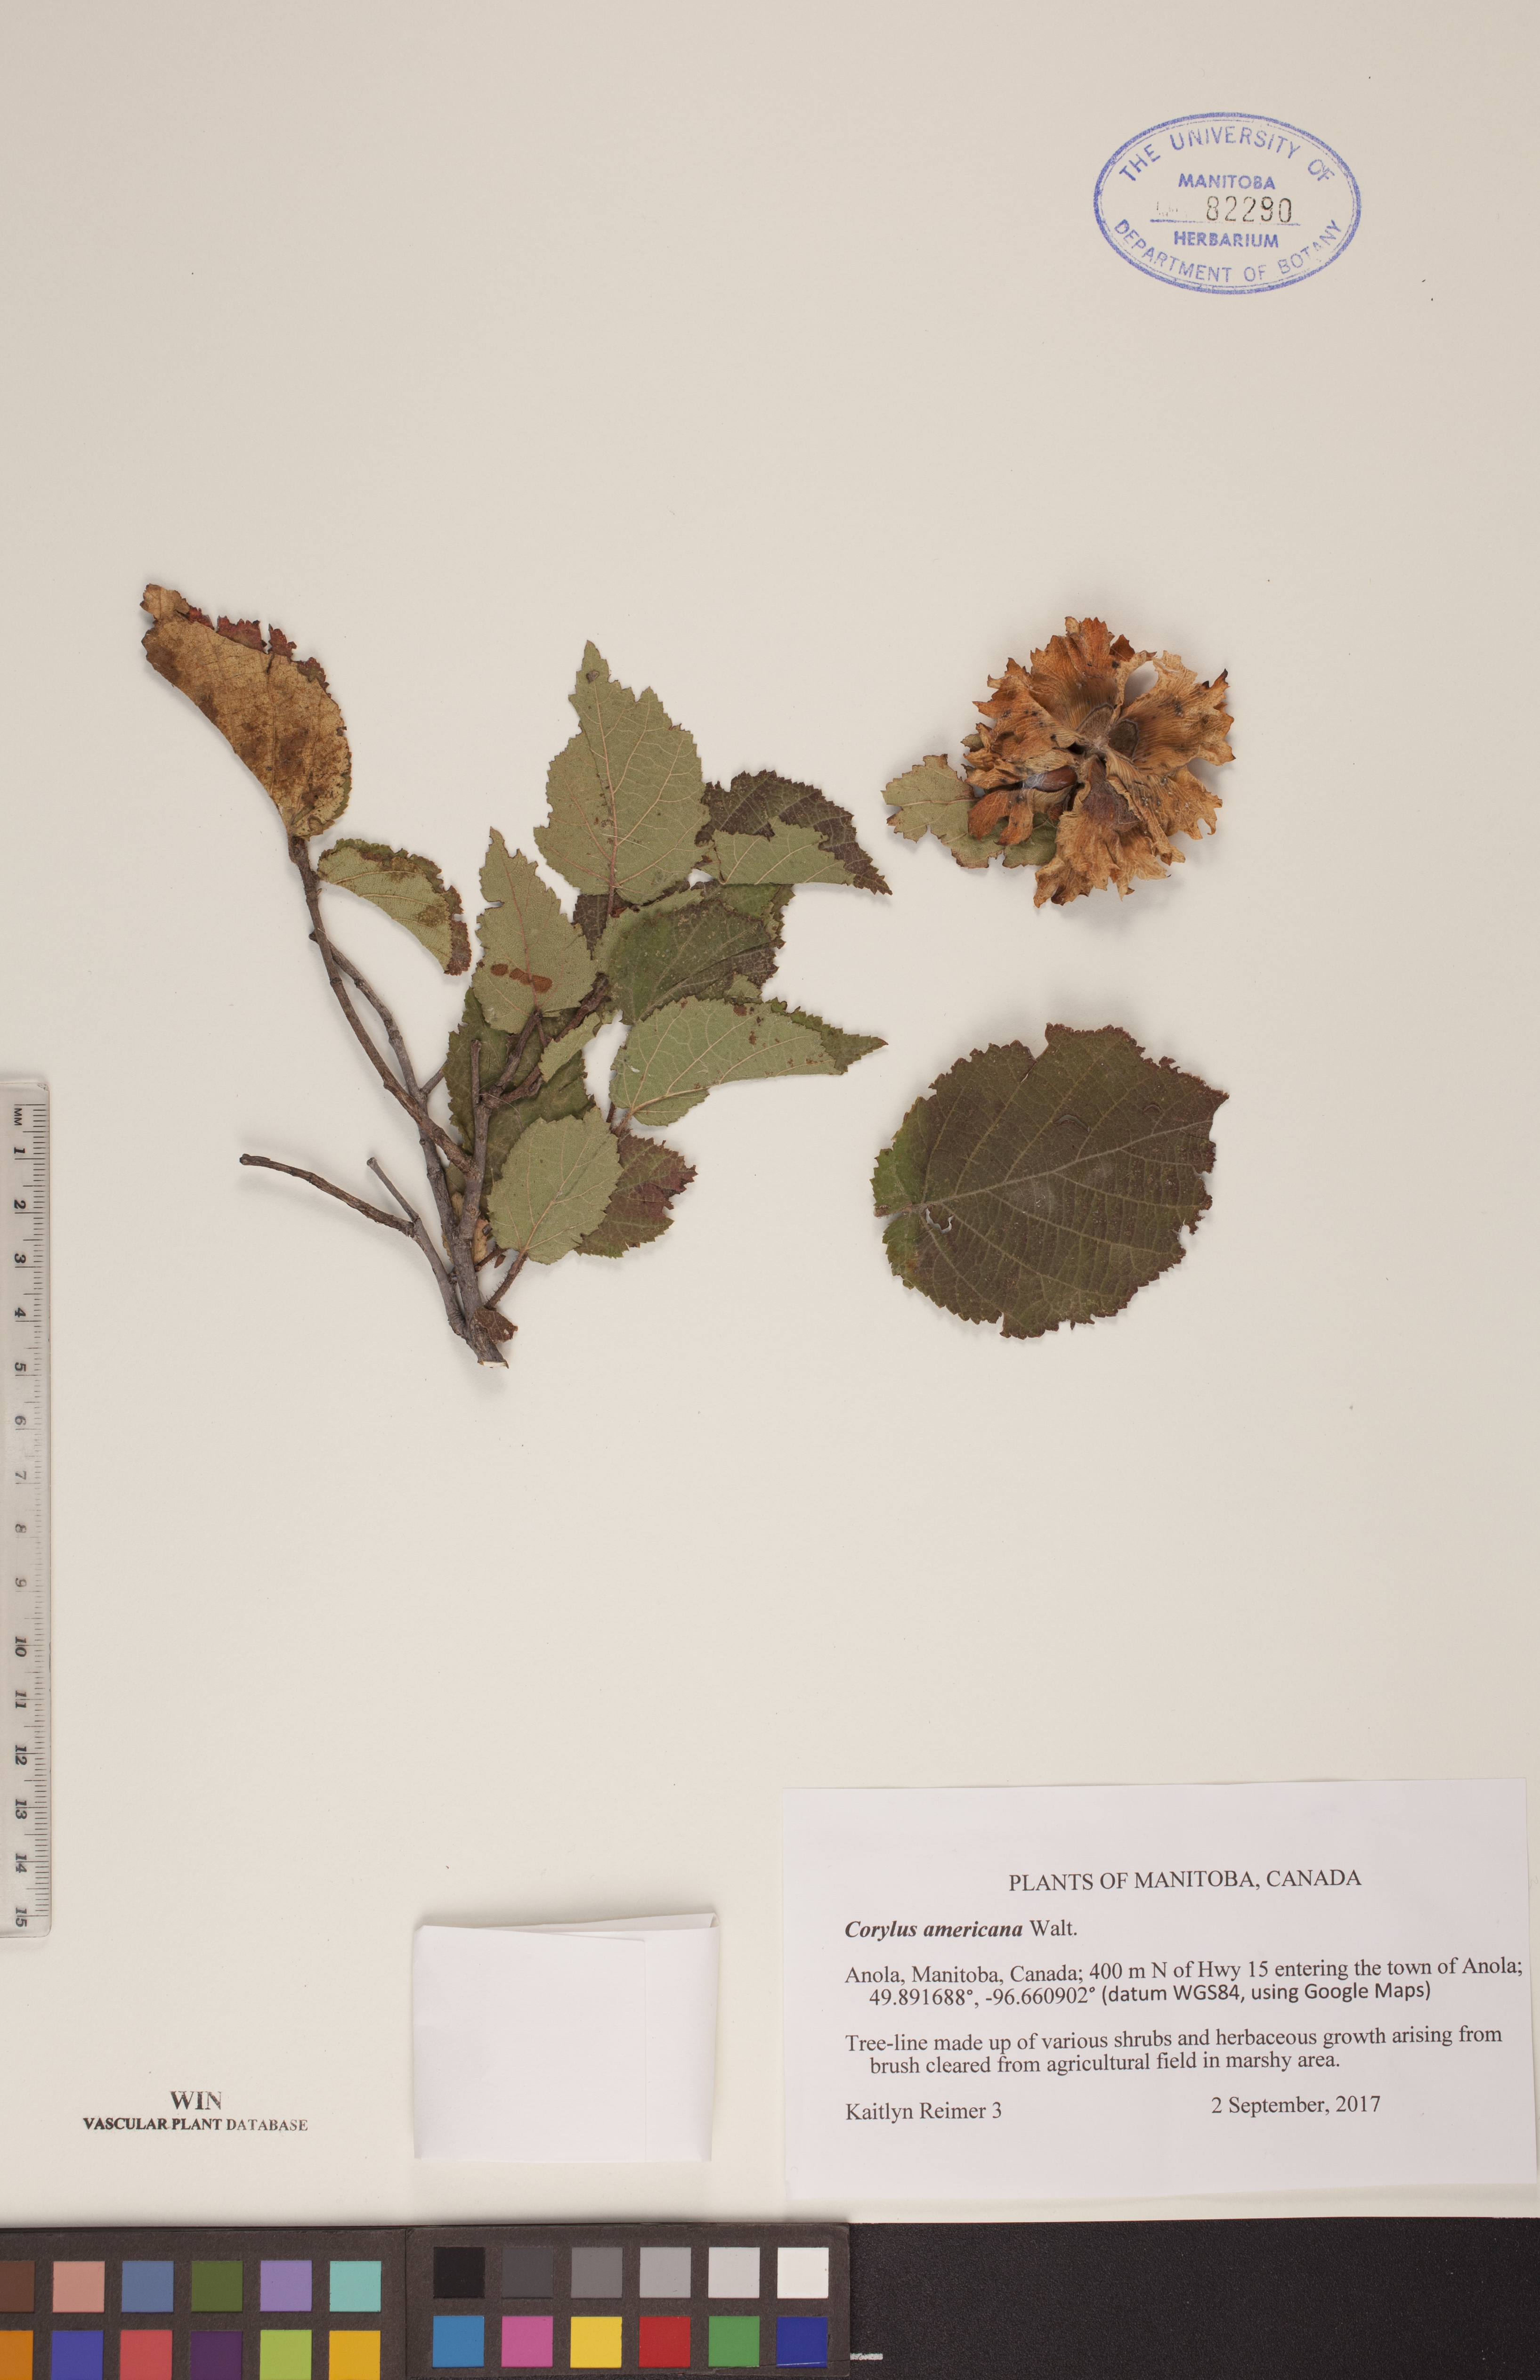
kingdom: Plantae
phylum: Tracheophyta
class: Magnoliopsida
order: Fagales
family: Betulaceae
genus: Corylus
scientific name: Corylus americana
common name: American hazel
